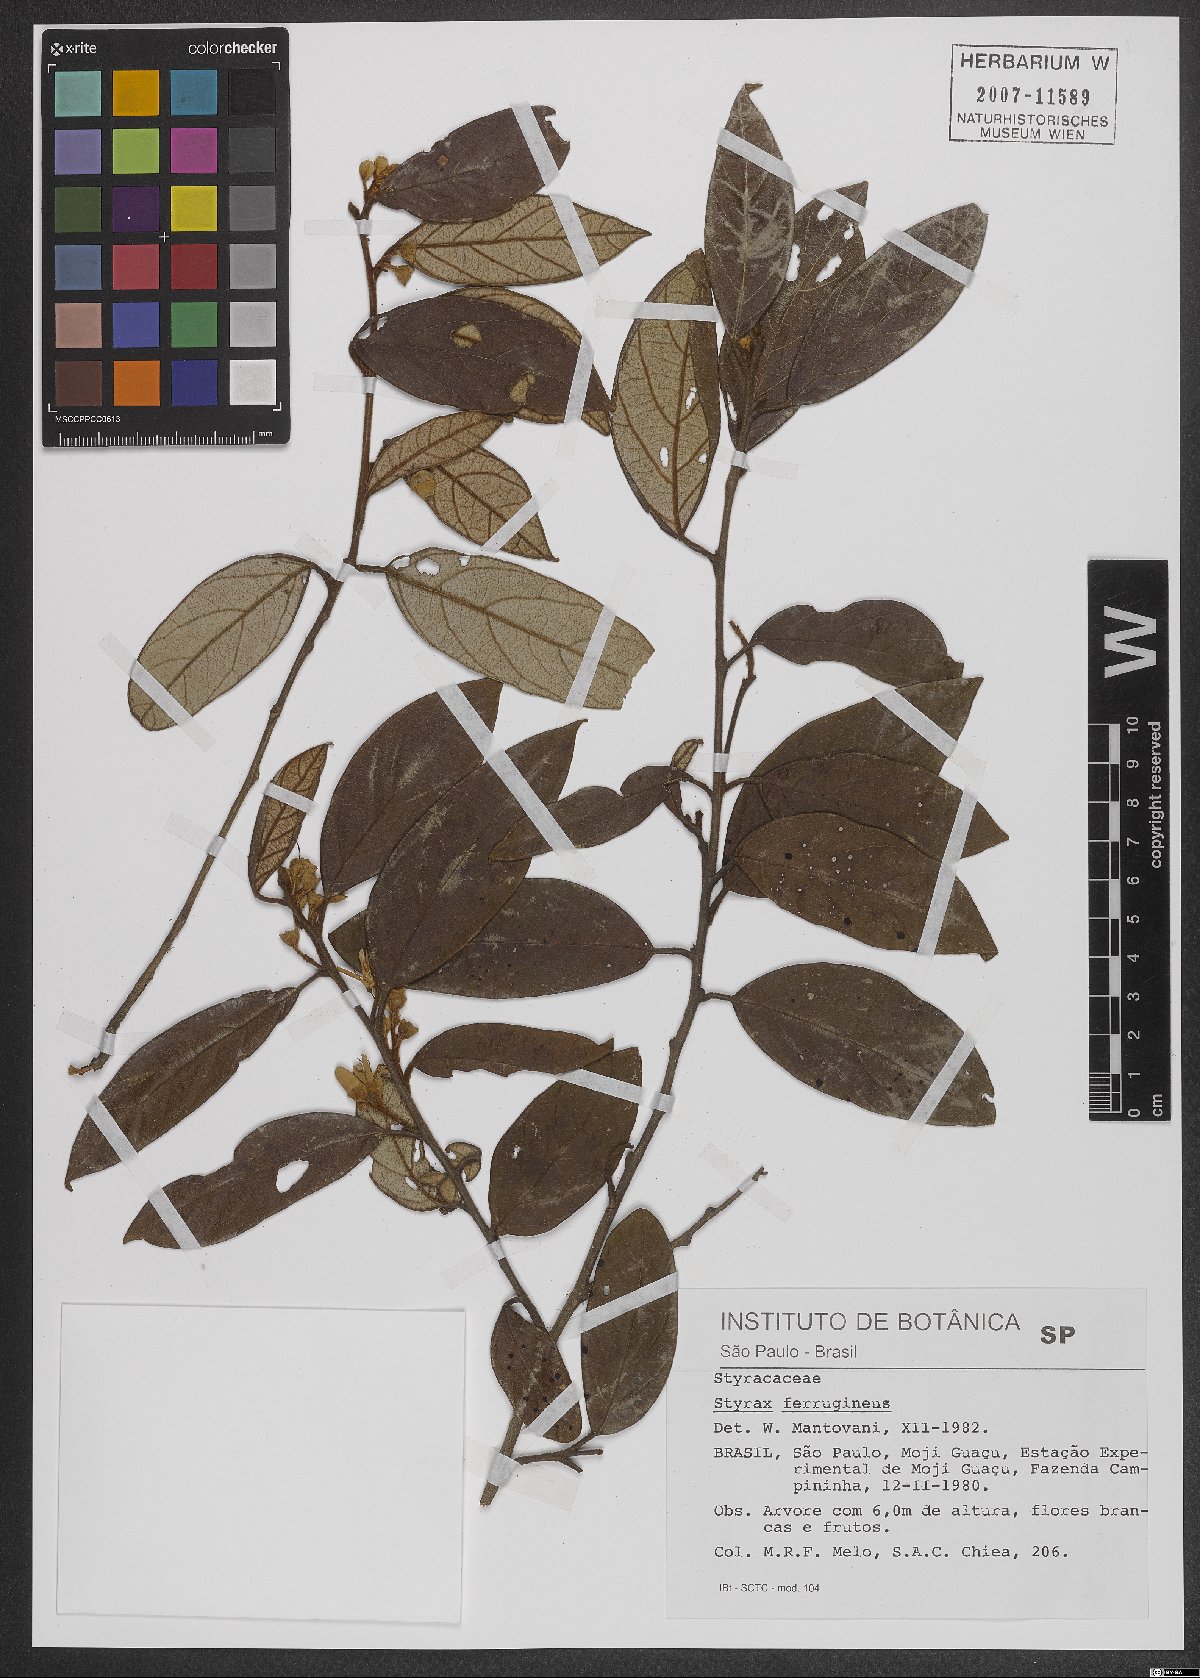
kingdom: Plantae
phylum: Tracheophyta
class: Magnoliopsida
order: Ericales
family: Styracaceae
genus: Styrax
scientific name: Styrax ferrugineus
